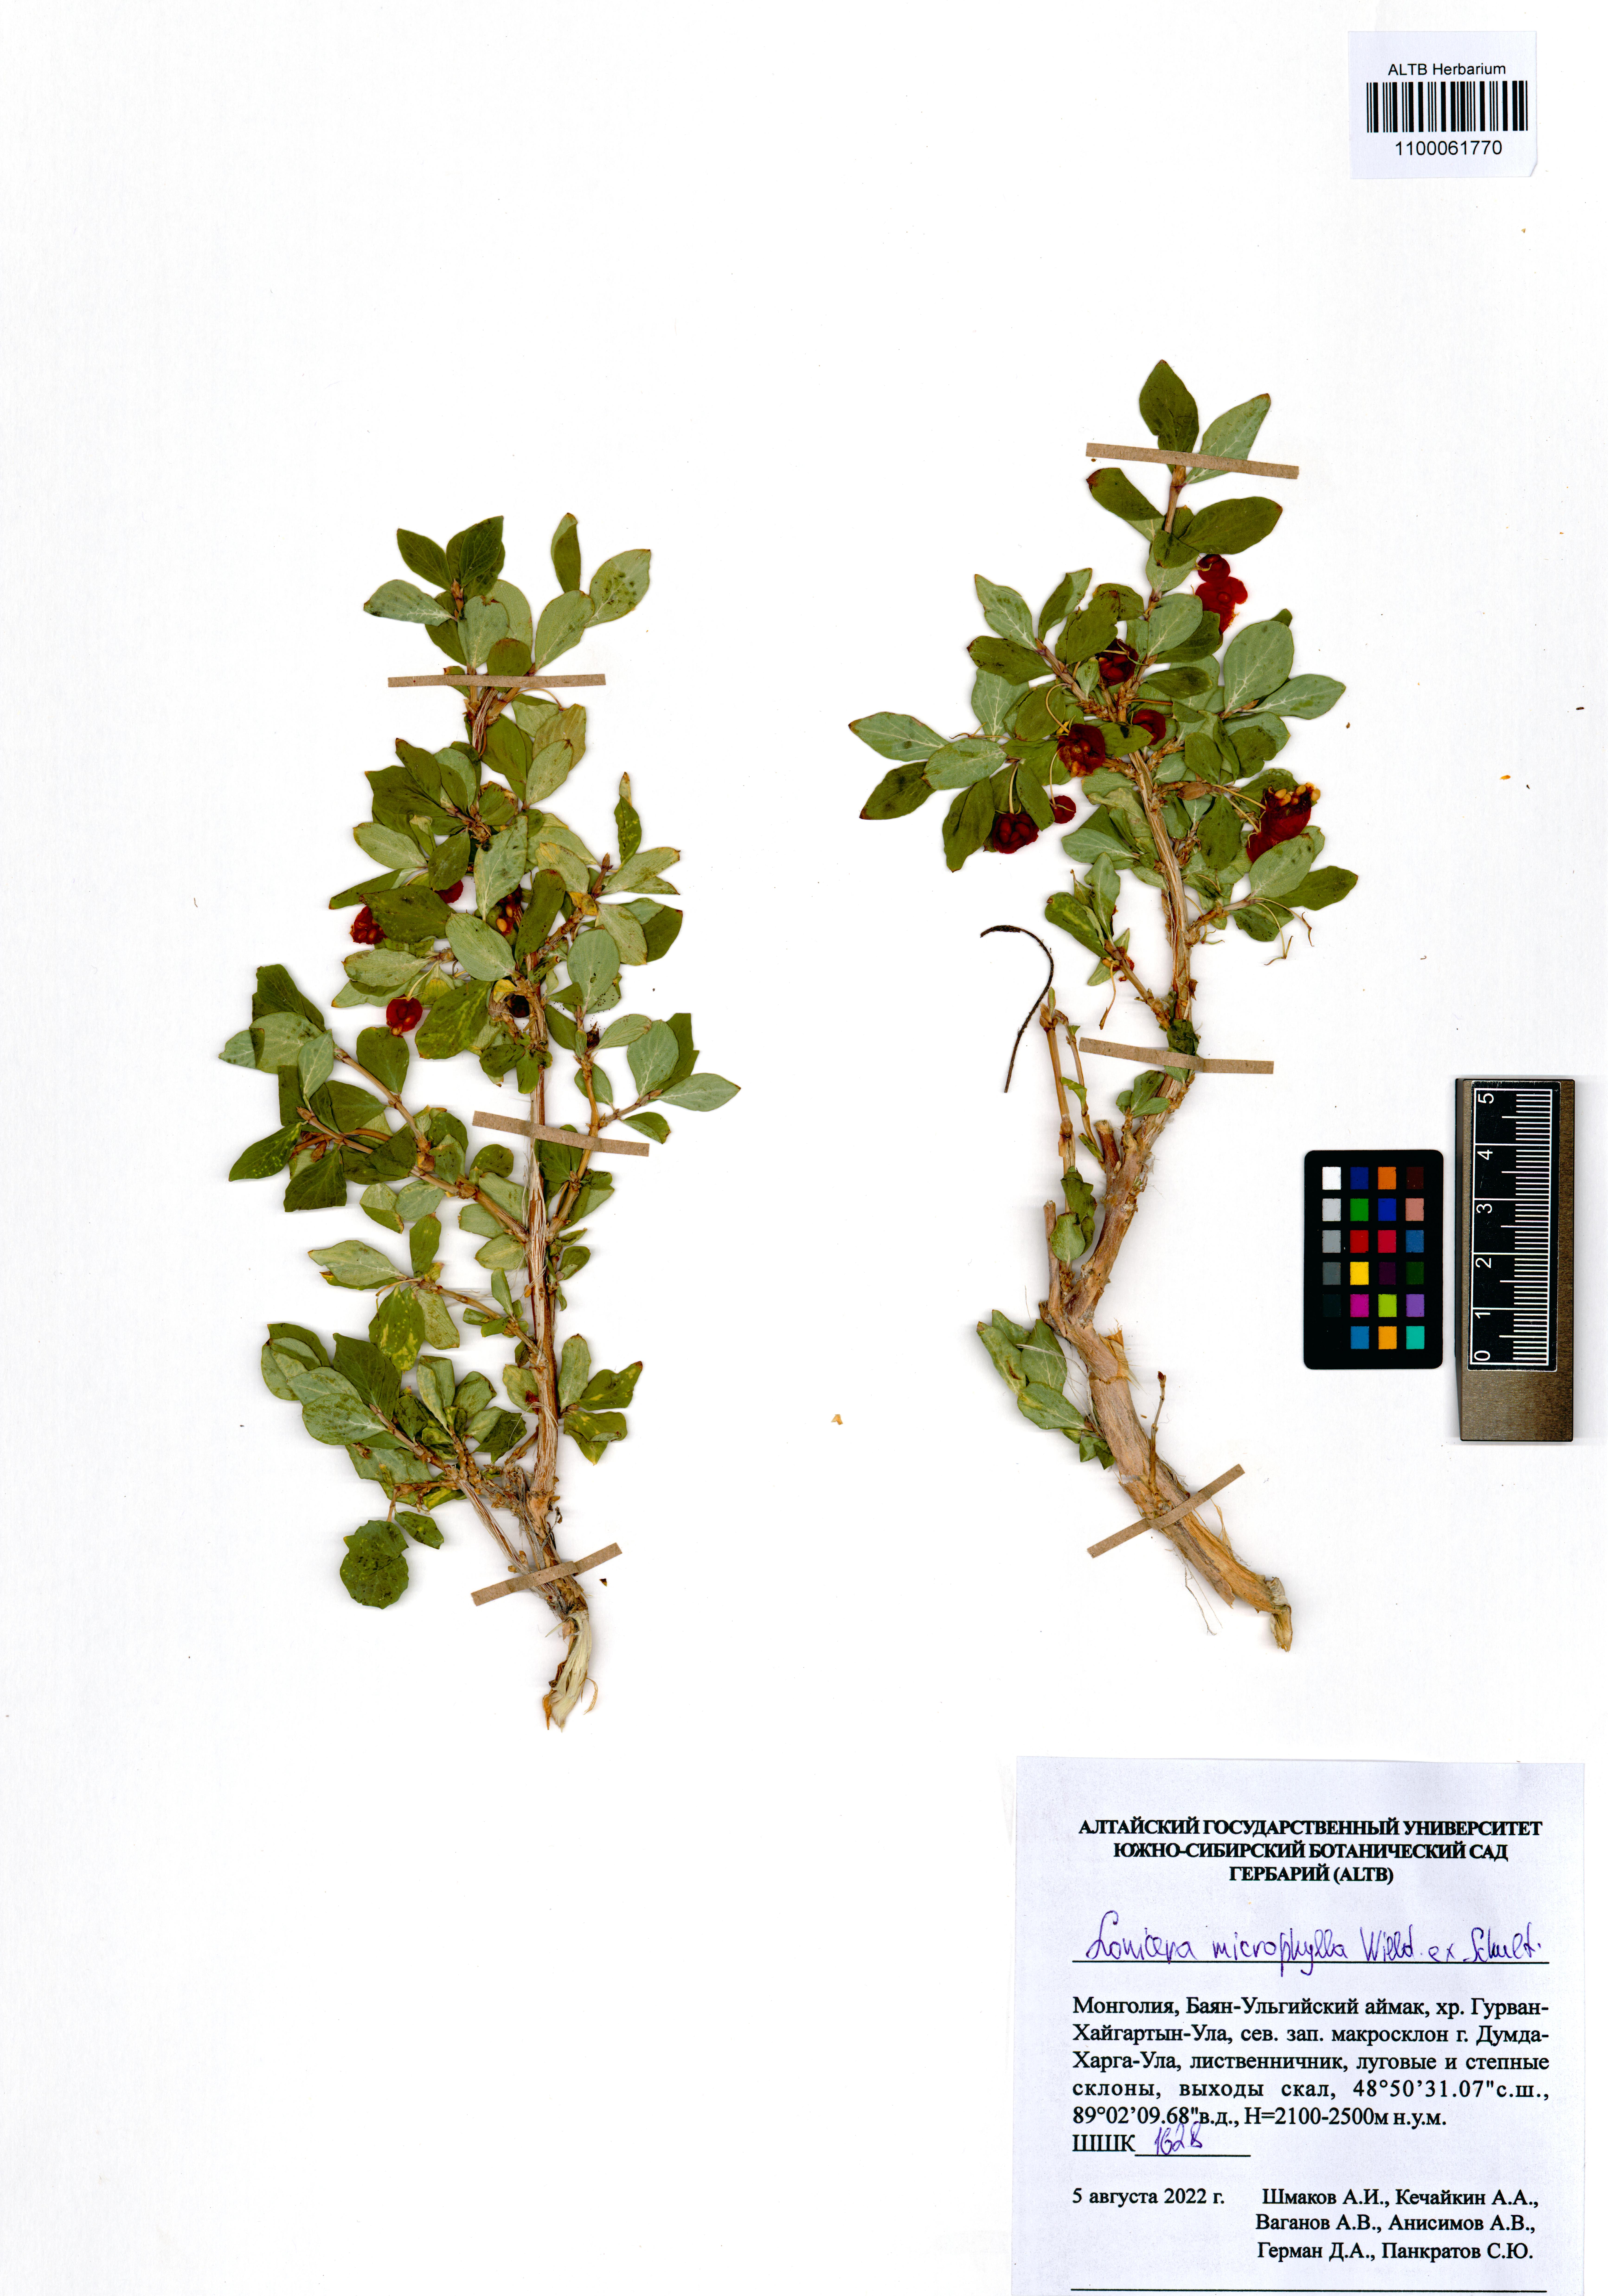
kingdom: Plantae
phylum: Tracheophyta
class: Magnoliopsida
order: Dipsacales
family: Caprifoliaceae
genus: Lonicera
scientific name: Lonicera microphylla
